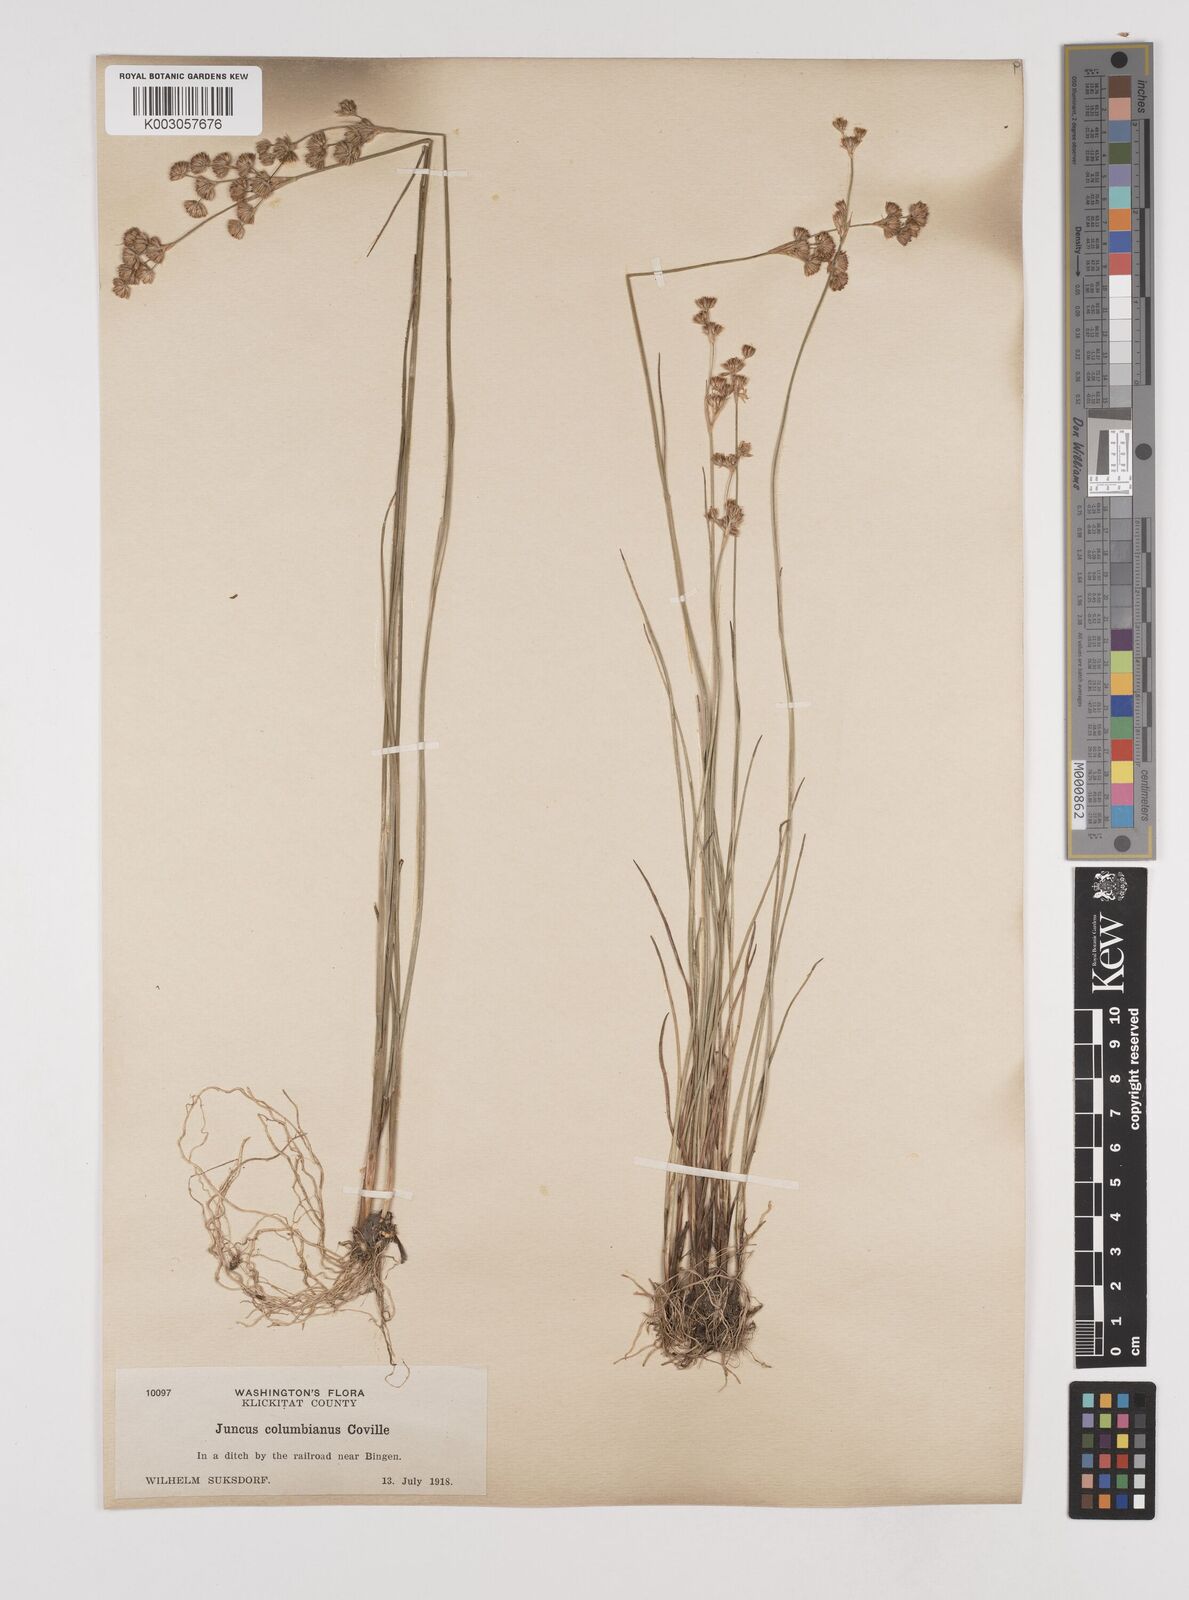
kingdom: Plantae
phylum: Tracheophyta
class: Liliopsida
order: Poales
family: Juncaceae
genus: Juncus
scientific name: Juncus nevadensis
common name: Nevada rush
